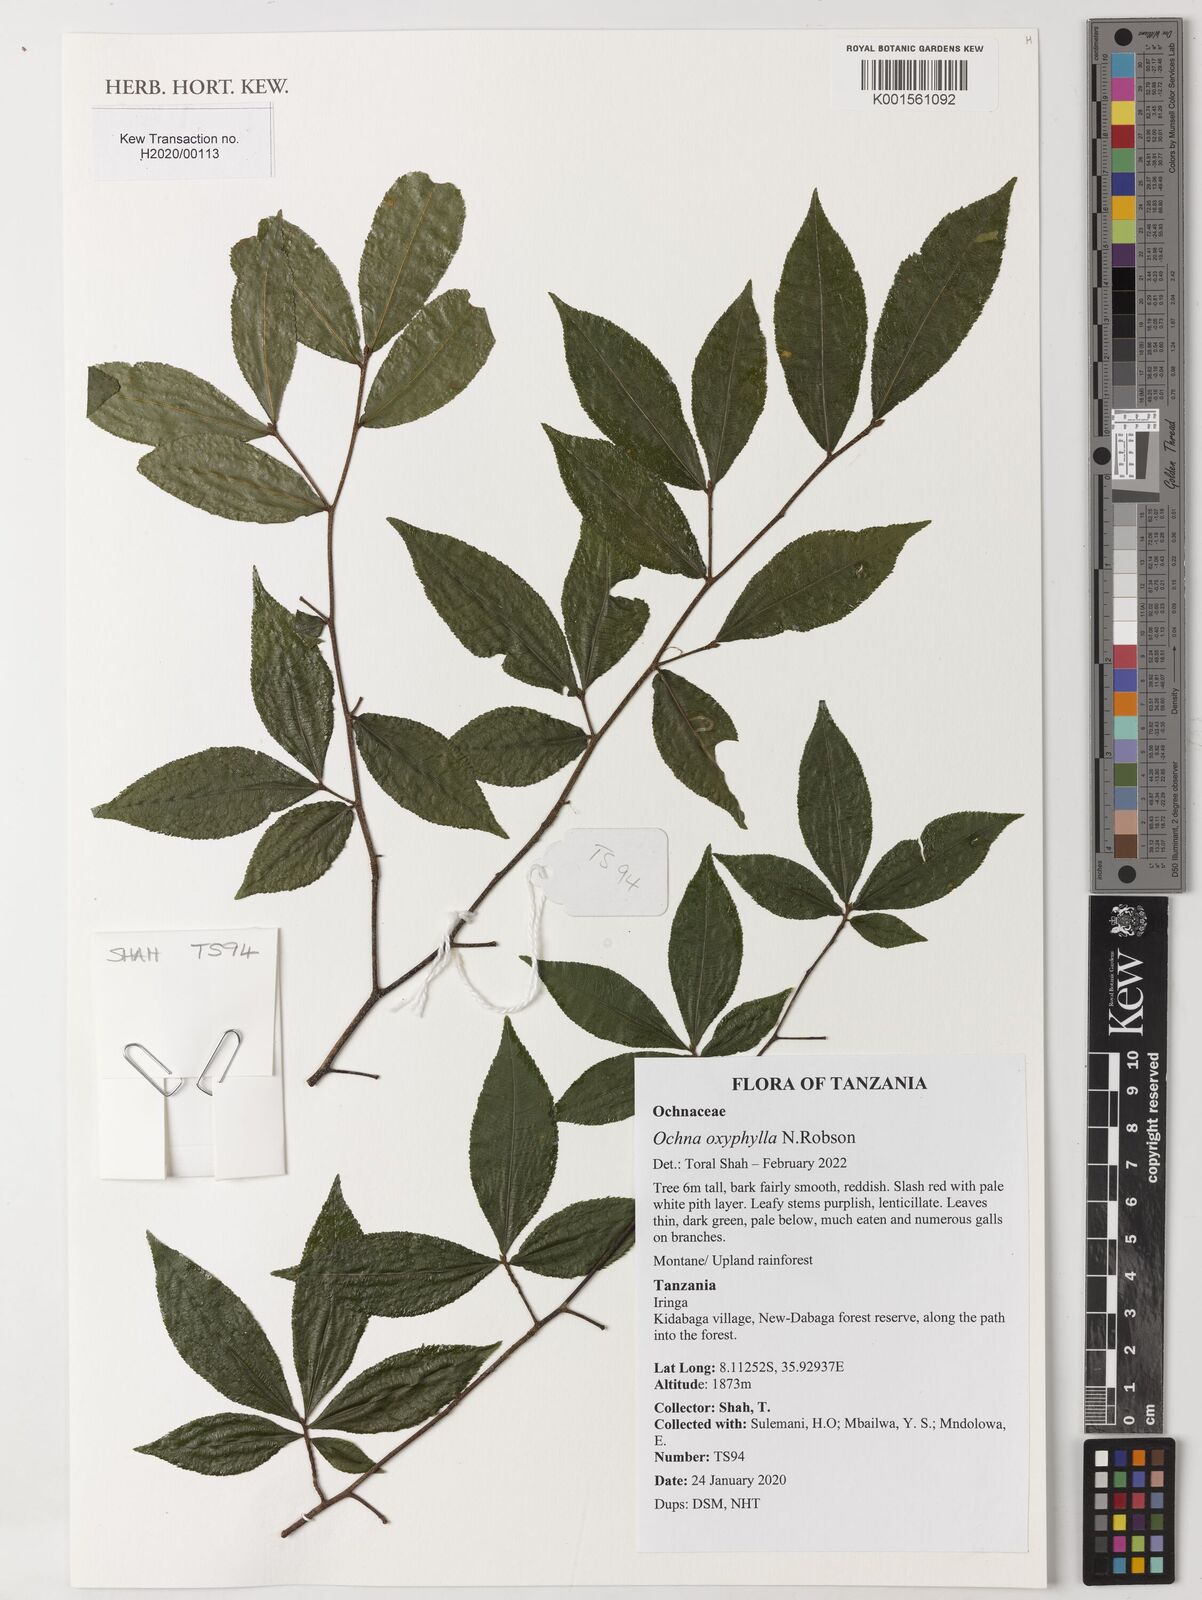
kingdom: Plantae
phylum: Tracheophyta
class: Magnoliopsida
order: Malpighiales
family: Ochnaceae
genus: Ochna
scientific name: Ochna oxyphylla
